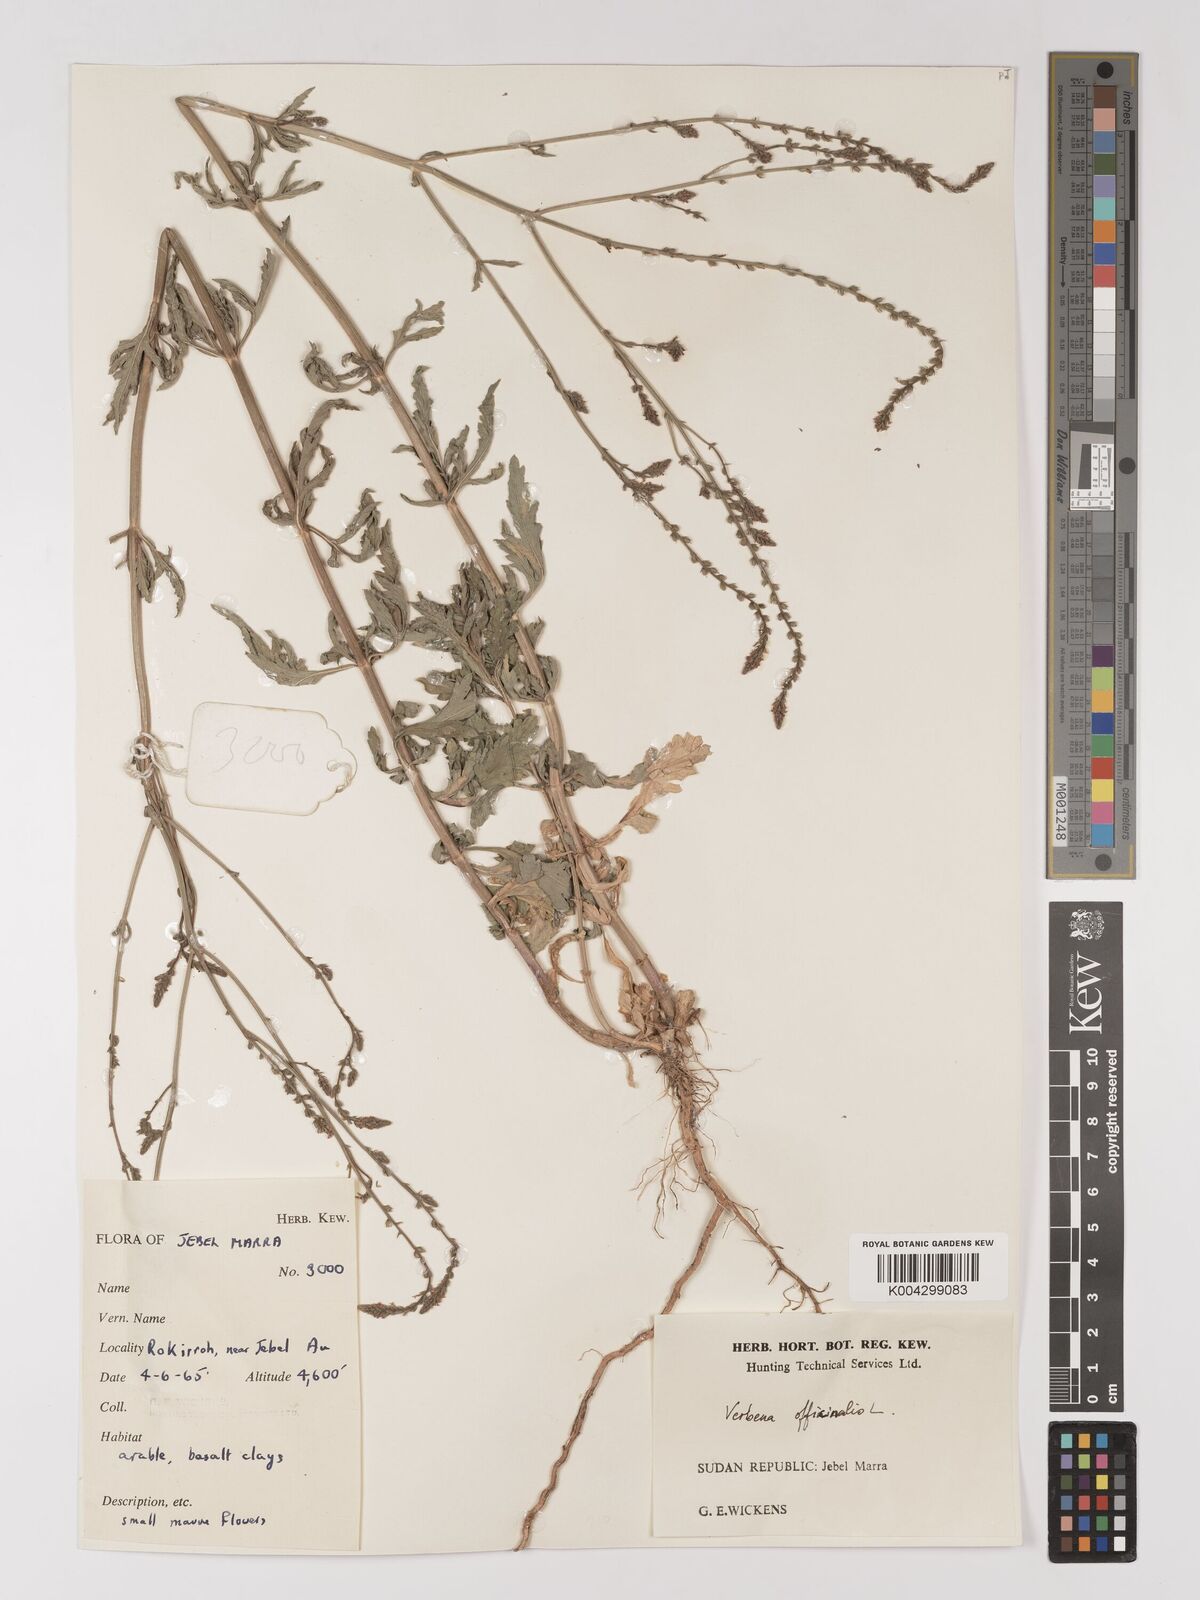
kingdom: Plantae
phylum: Tracheophyta
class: Magnoliopsida
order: Lamiales
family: Verbenaceae
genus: Verbena
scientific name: Verbena officinalis
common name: Vervain
